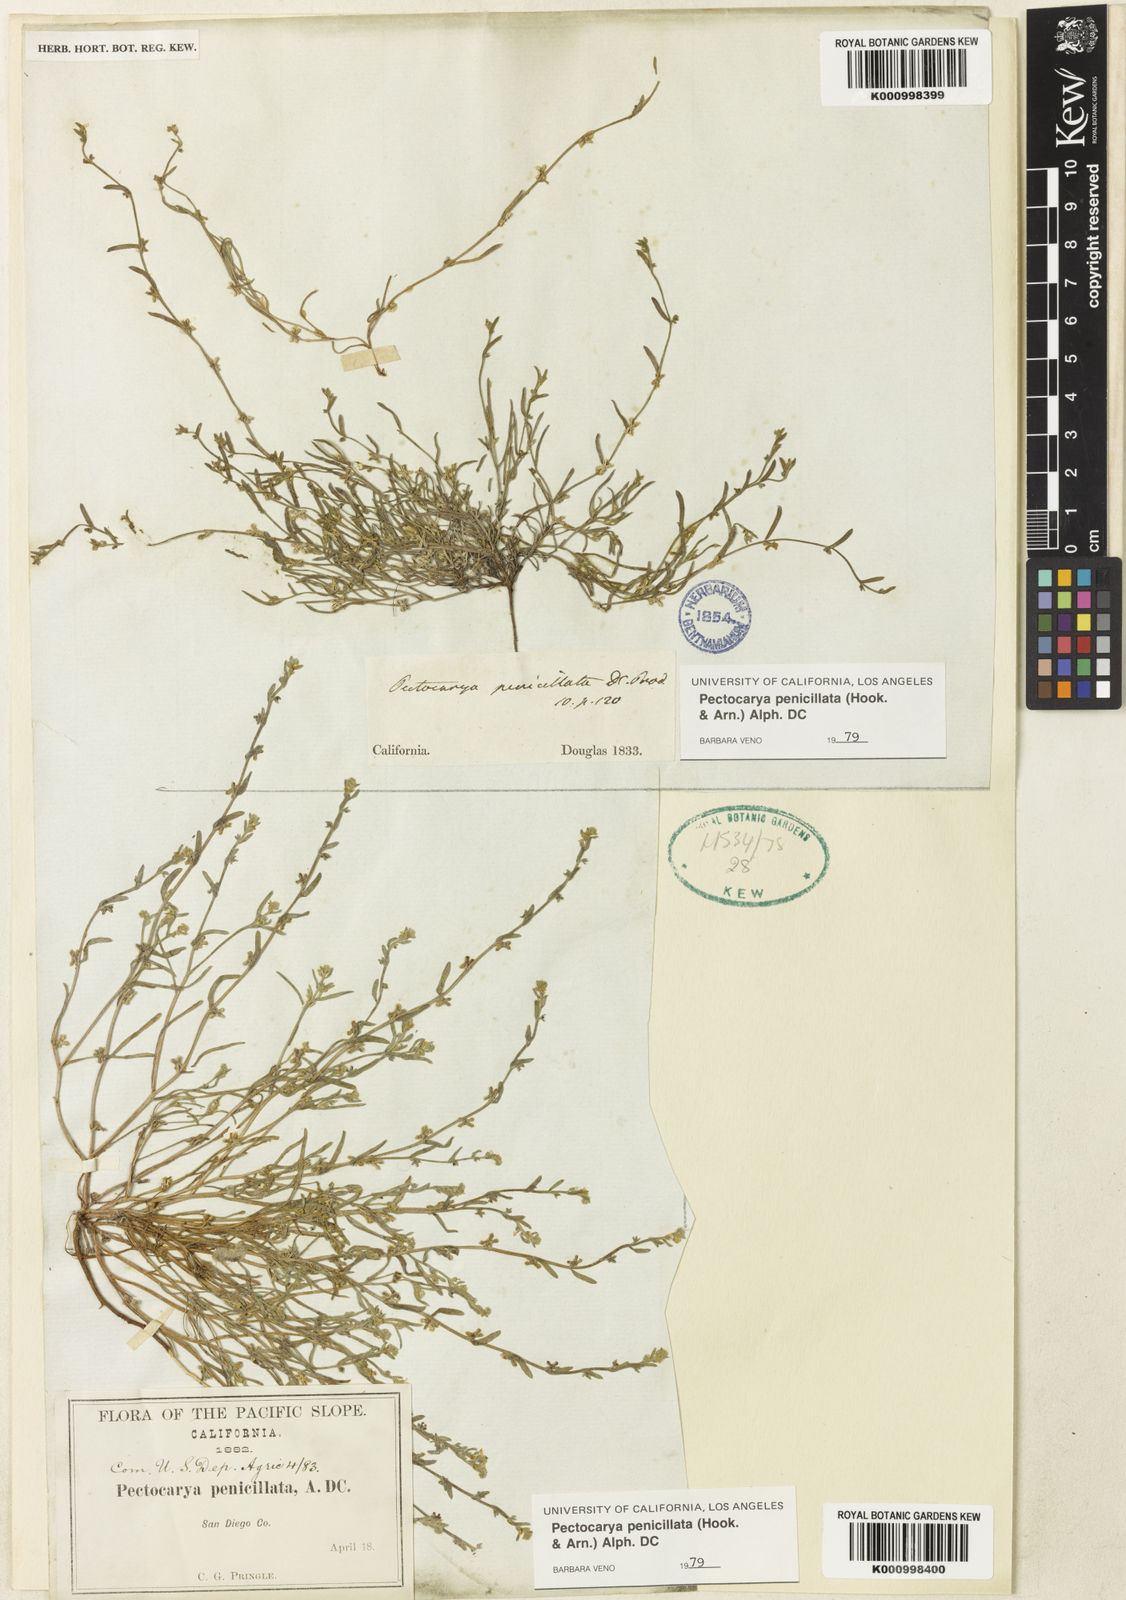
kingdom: Plantae
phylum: Tracheophyta
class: Magnoliopsida
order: Boraginales
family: Boraginaceae
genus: Pectocarya
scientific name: Pectocarya penicillata
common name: Short-leaved combseed
